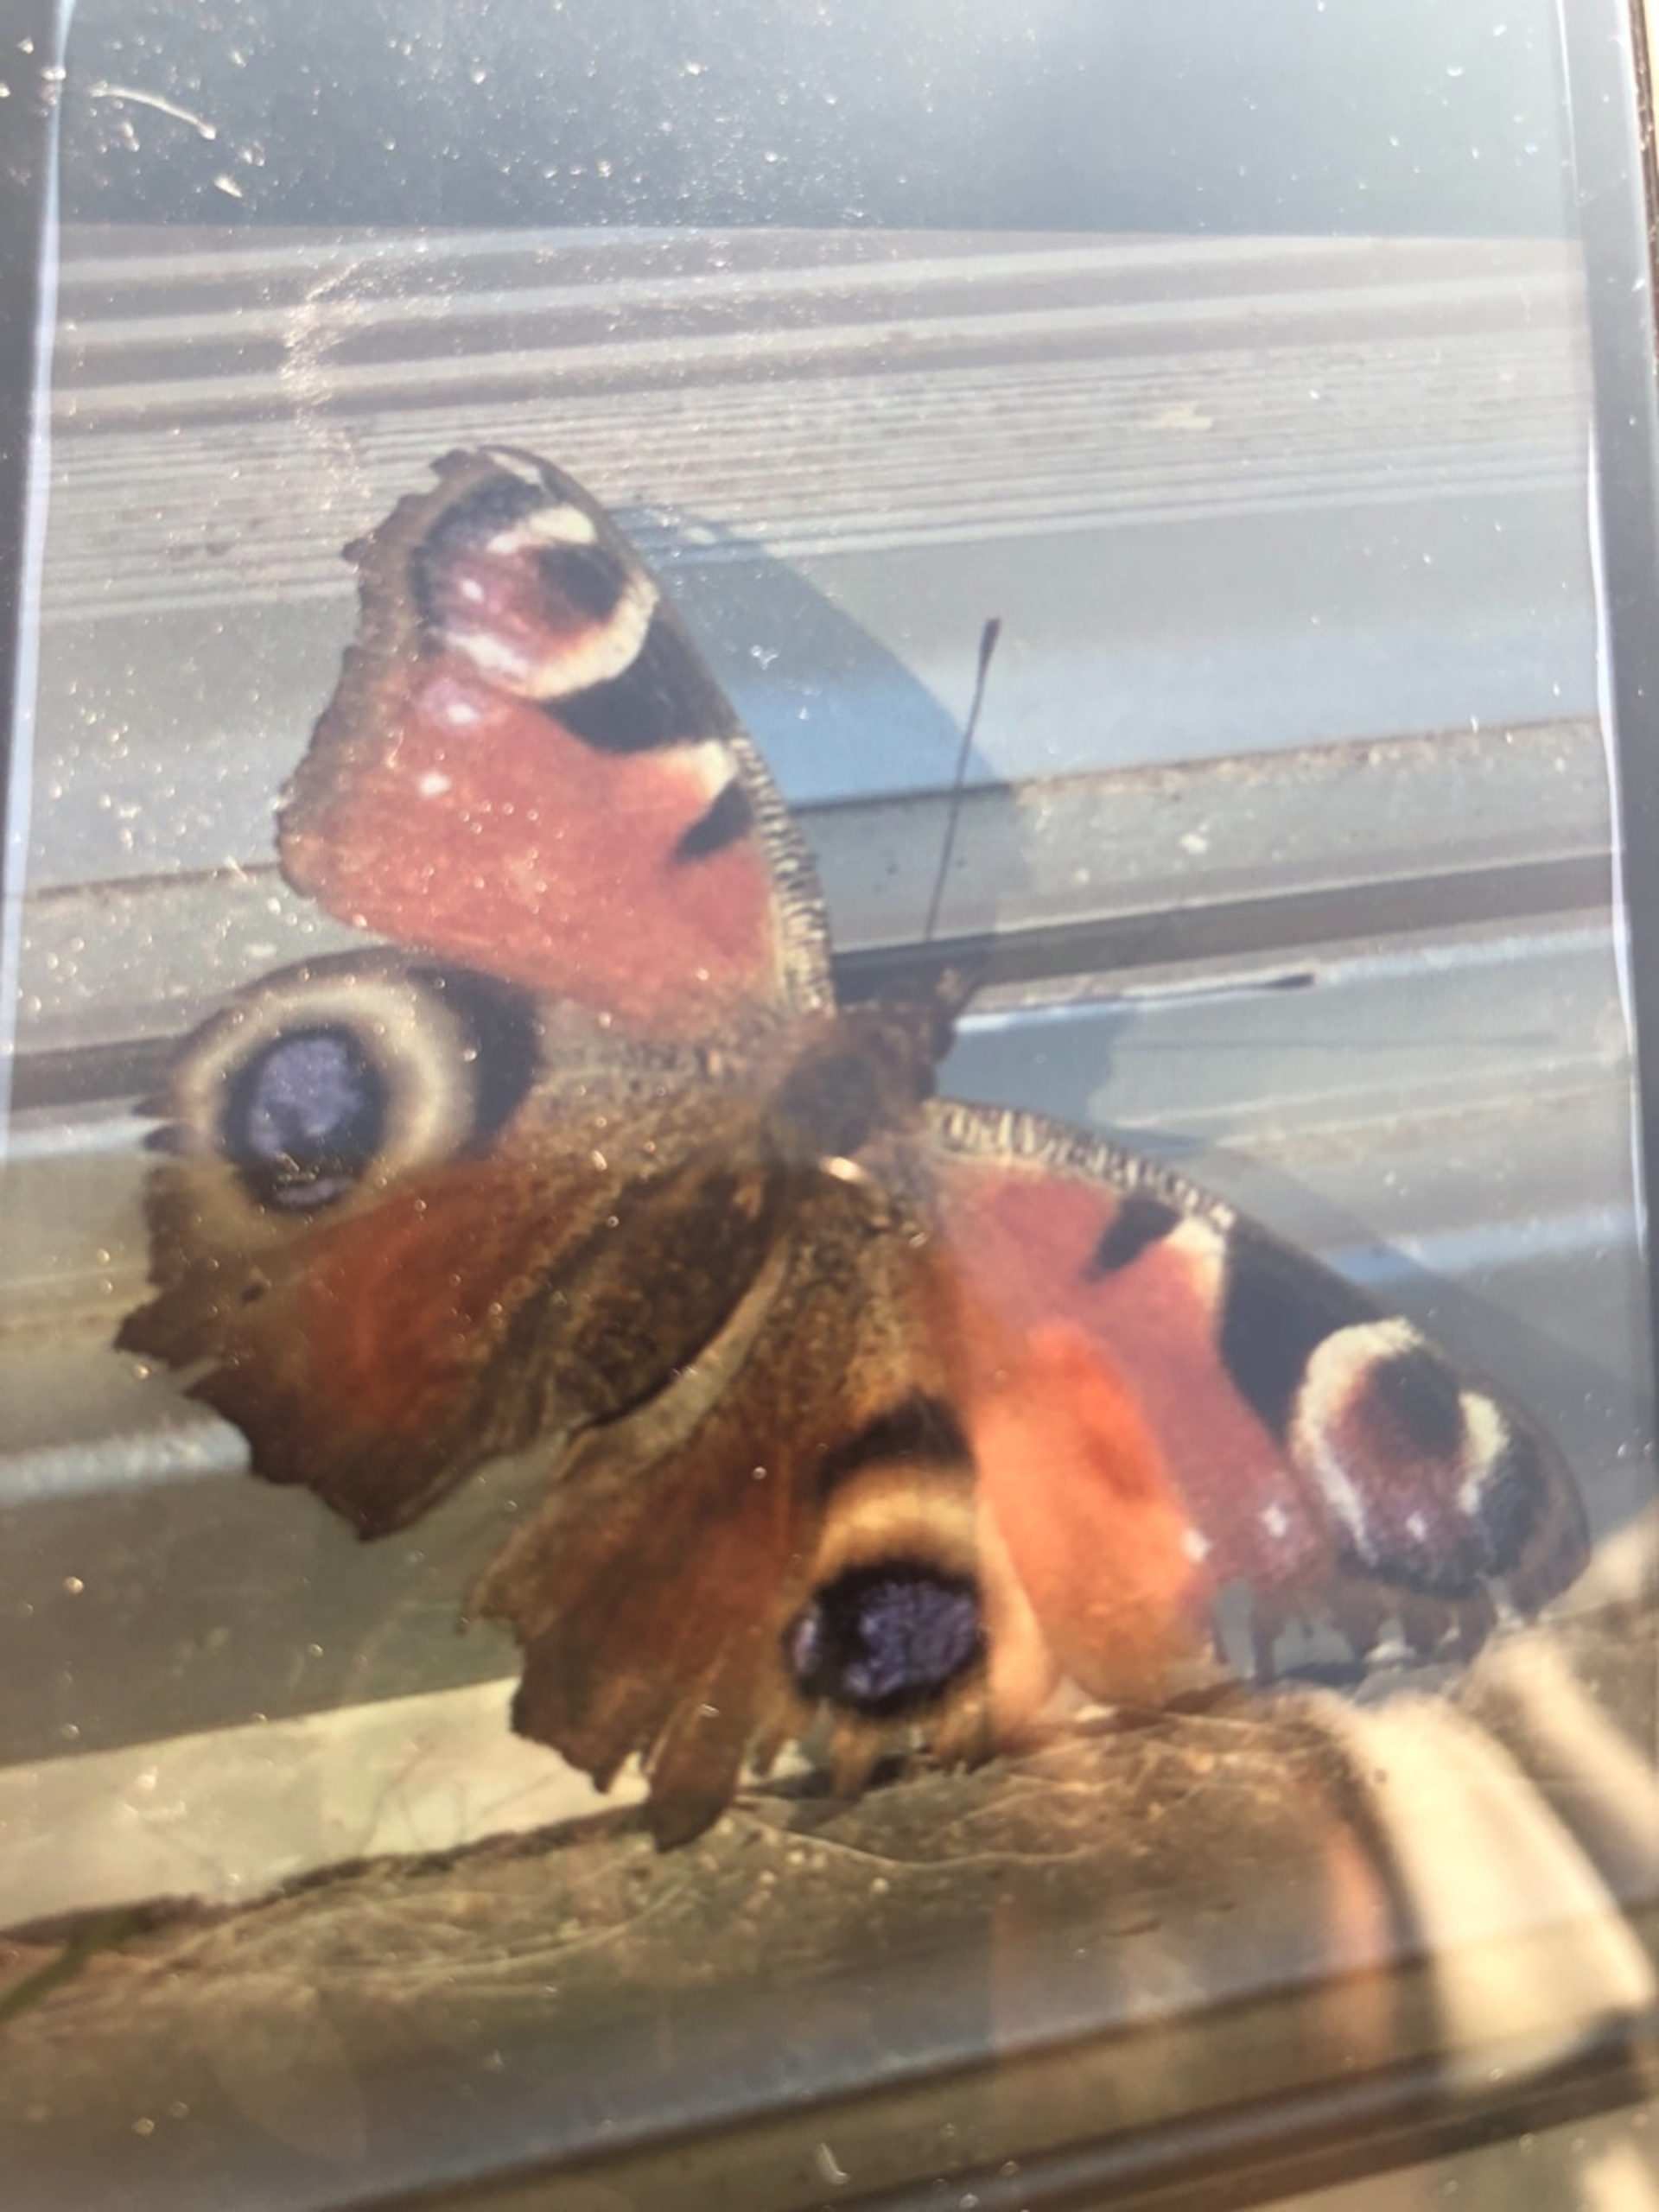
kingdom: Animalia
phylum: Arthropoda
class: Insecta
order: Lepidoptera
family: Nymphalidae
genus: Aglais
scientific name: Aglais io
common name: Dagpåfugleøje
